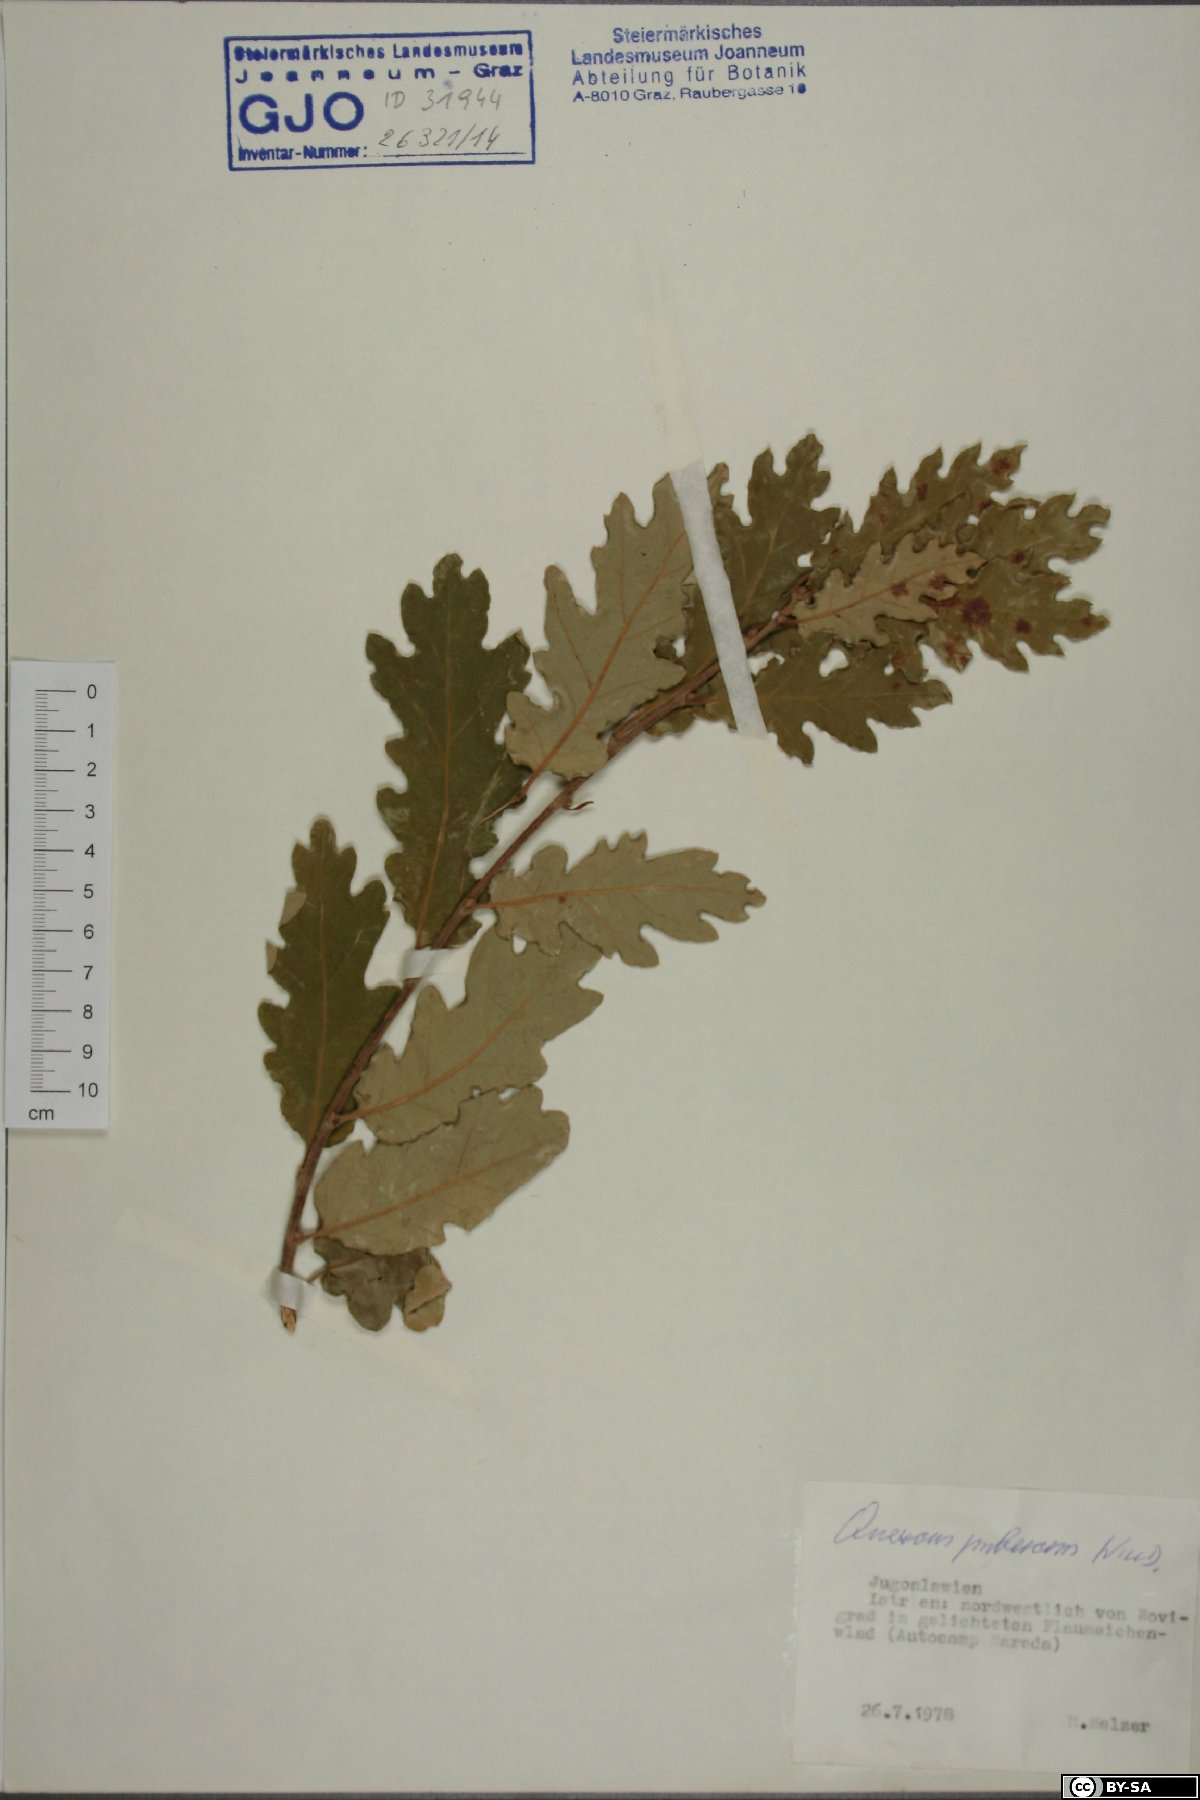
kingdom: Plantae
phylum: Tracheophyta
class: Magnoliopsida
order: Fagales
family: Fagaceae
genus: Quercus
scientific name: Quercus pubescens
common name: Downy oak
